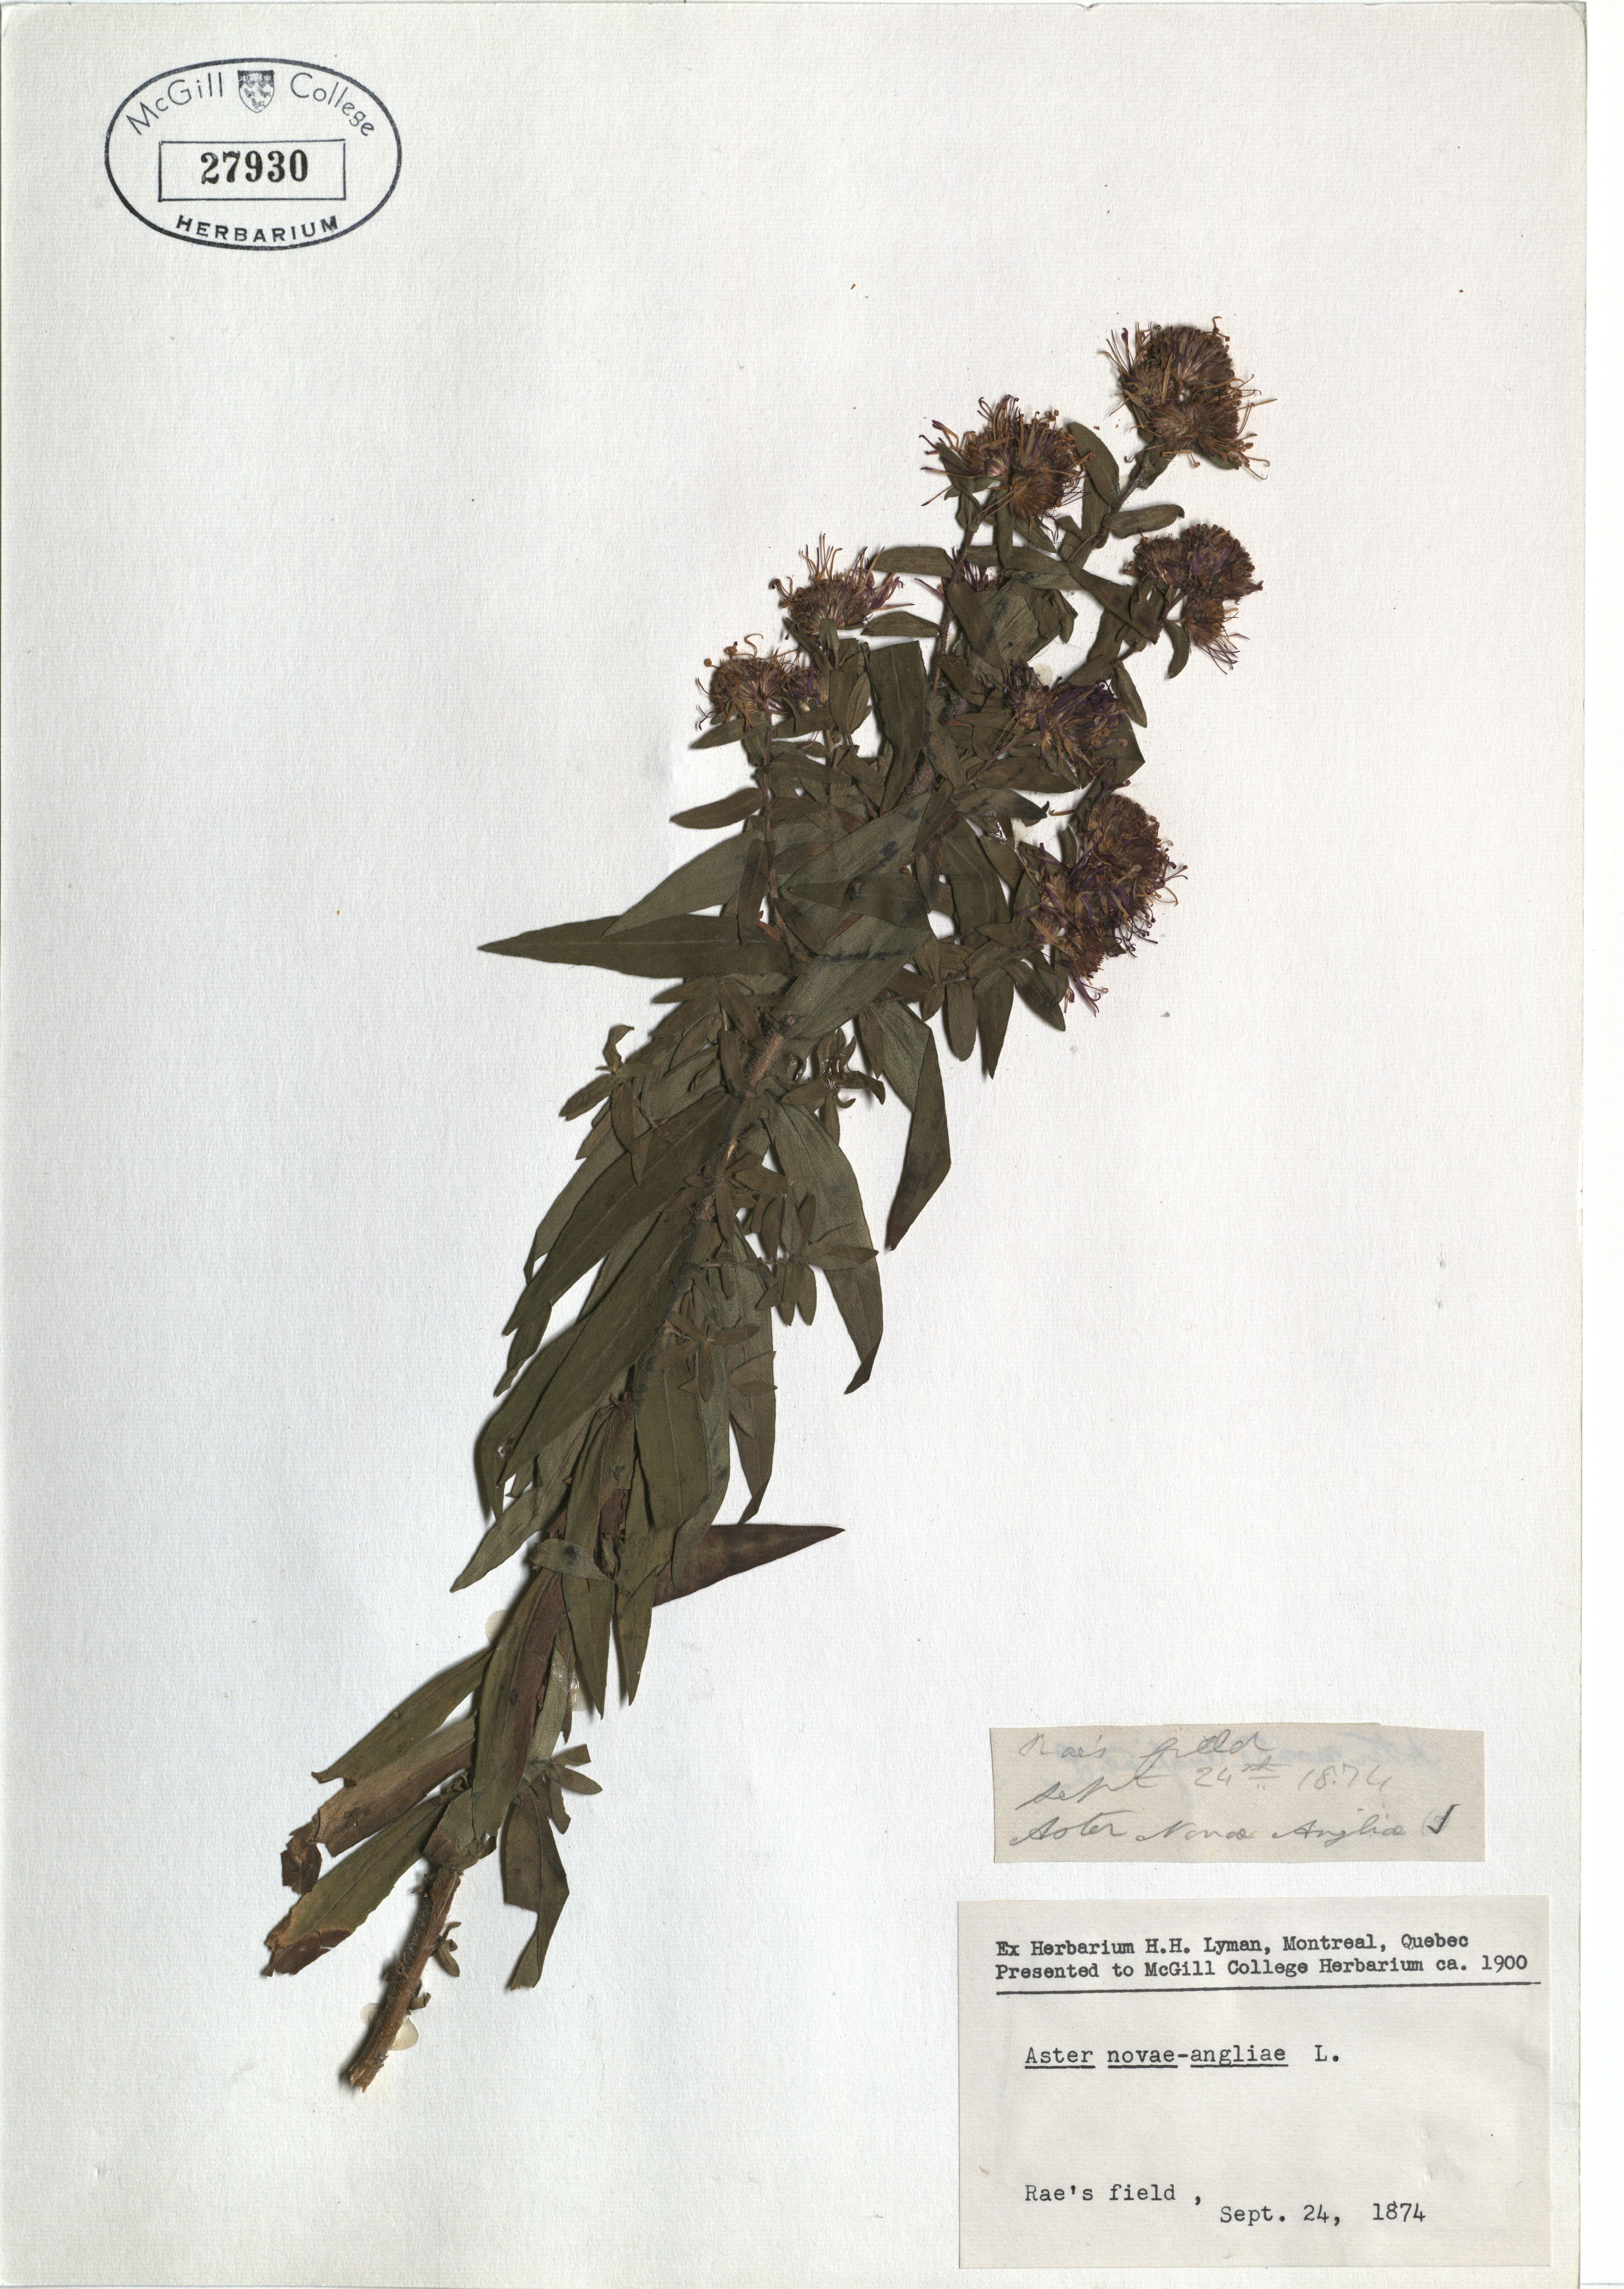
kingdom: Plantae
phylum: Tracheophyta
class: Magnoliopsida
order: Asterales
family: Asteraceae
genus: Symphyotrichum
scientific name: Symphyotrichum novae-angliae
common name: Michaelmas daisy
